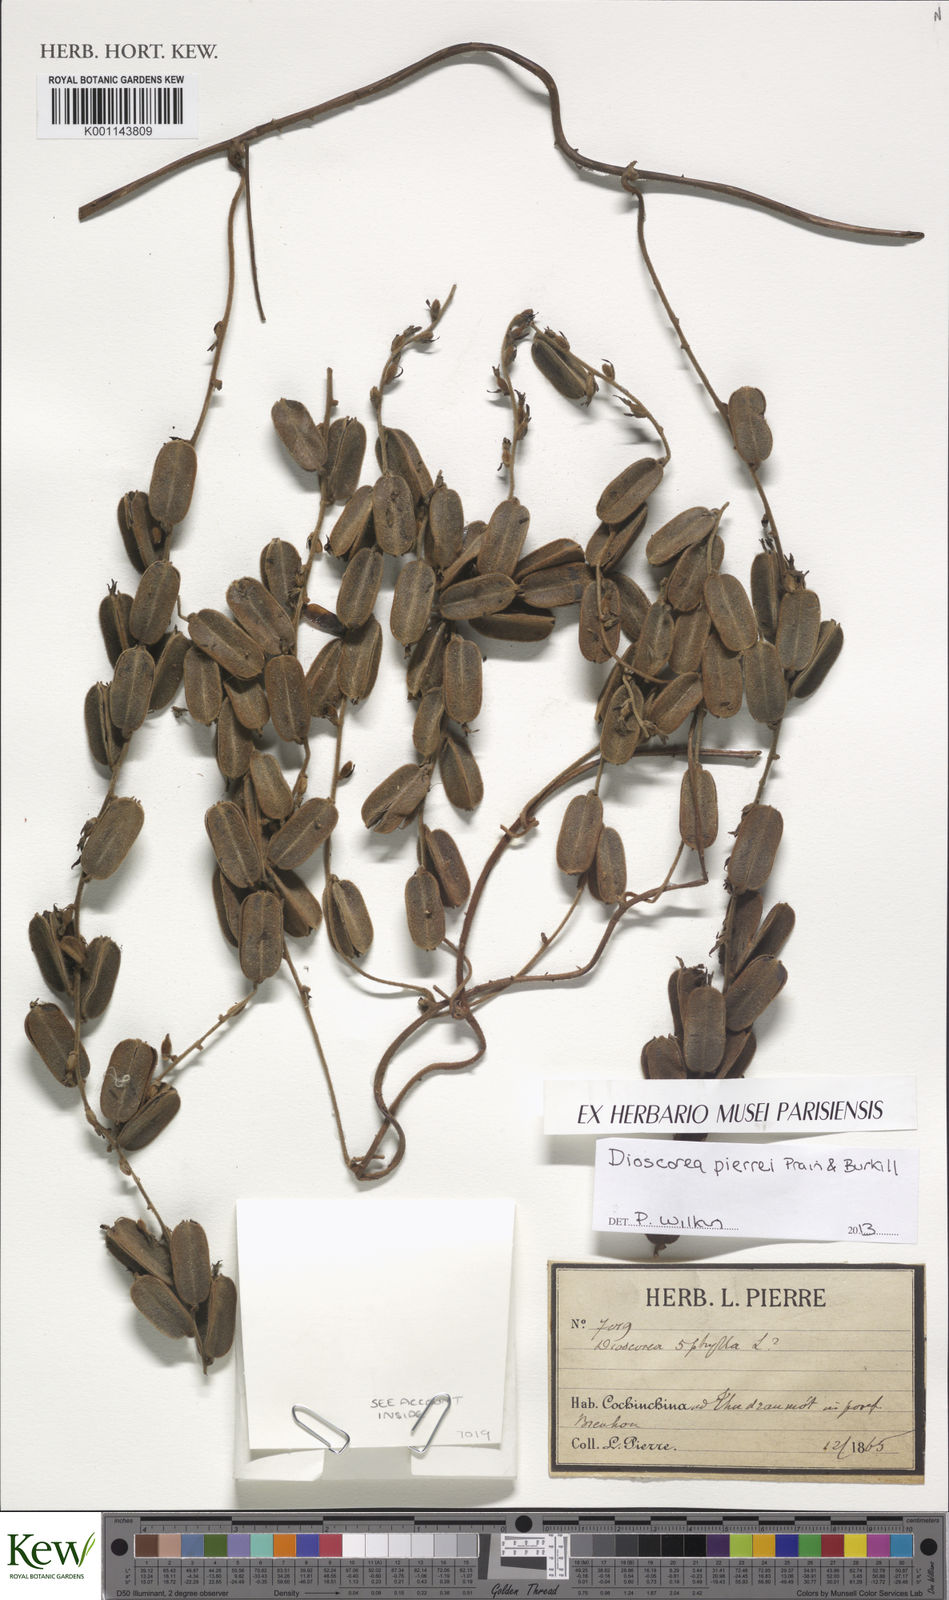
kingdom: Plantae
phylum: Tracheophyta
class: Liliopsida
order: Dioscoreales
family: Dioscoreaceae
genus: Dioscorea
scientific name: Dioscorea pierrei
